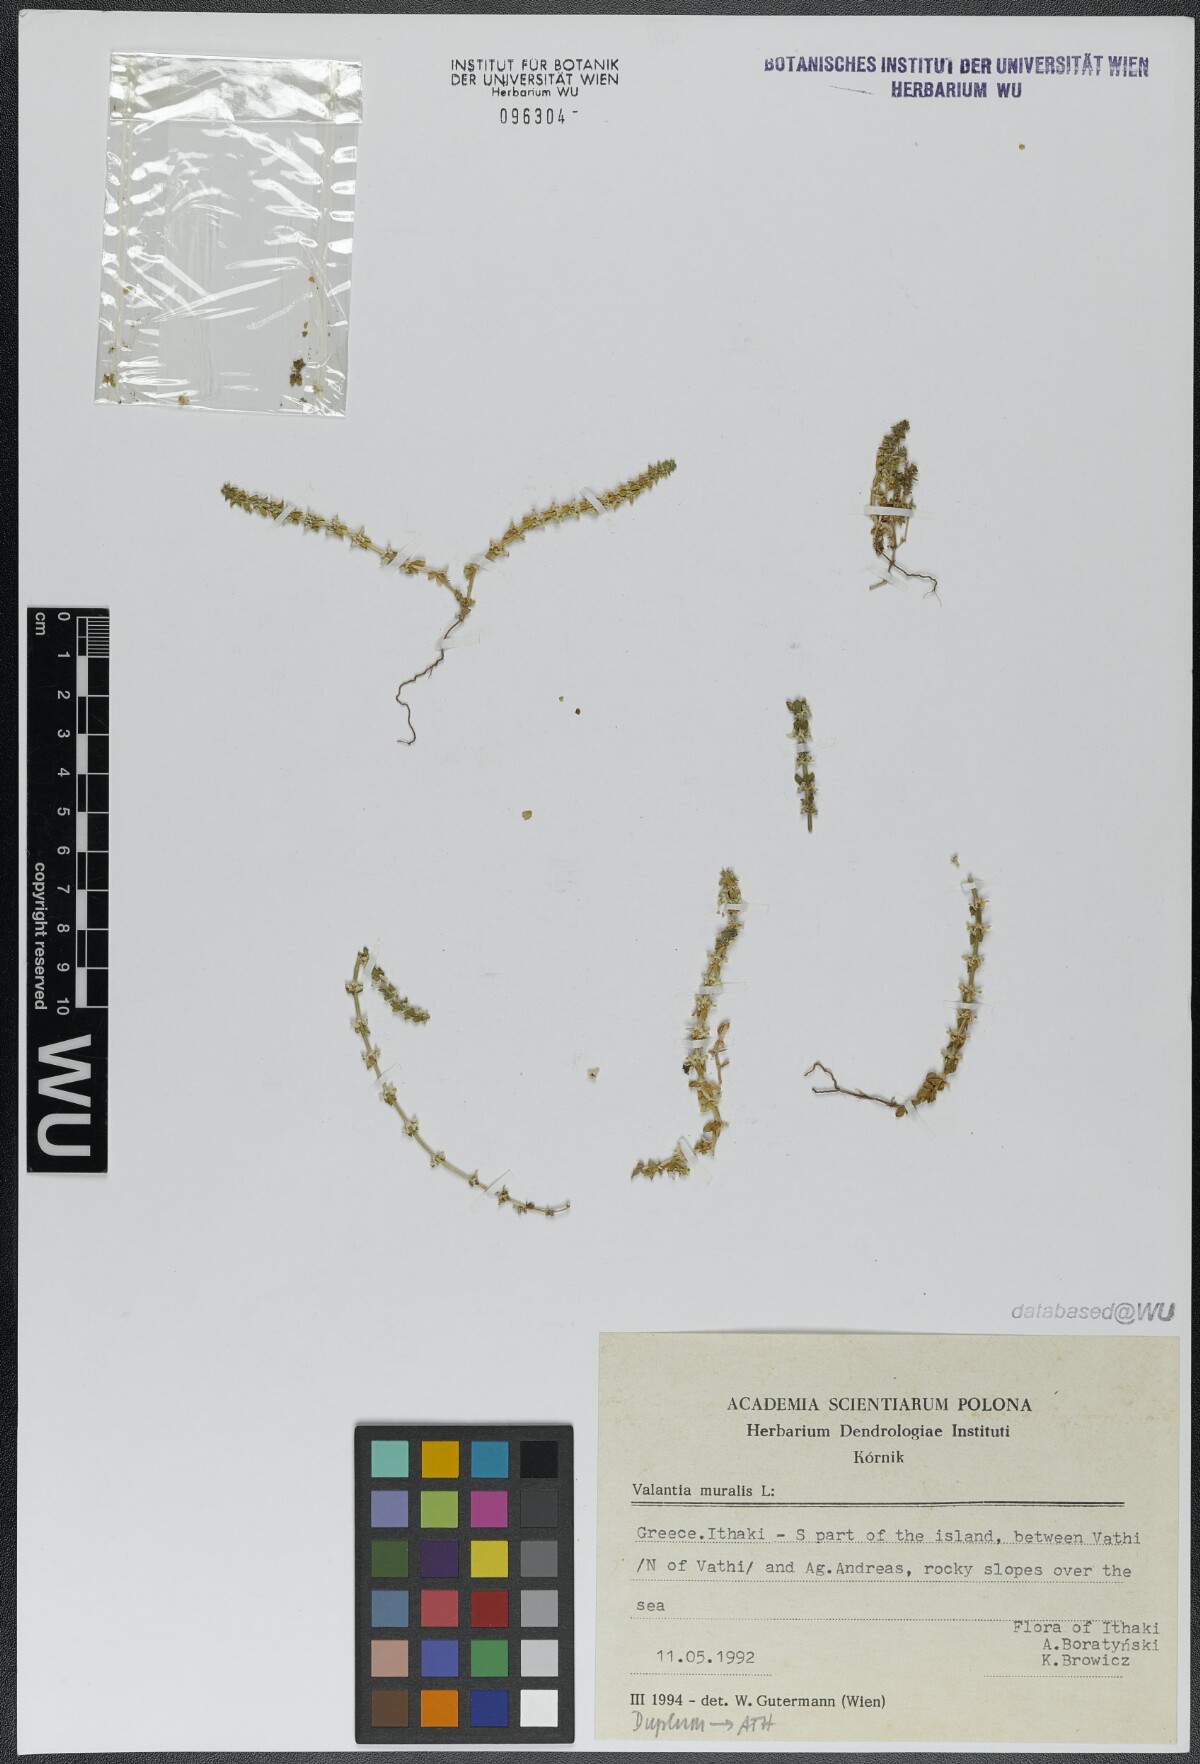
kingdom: Plantae
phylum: Tracheophyta
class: Magnoliopsida
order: Gentianales
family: Rubiaceae
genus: Valantia
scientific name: Valantia muralis
